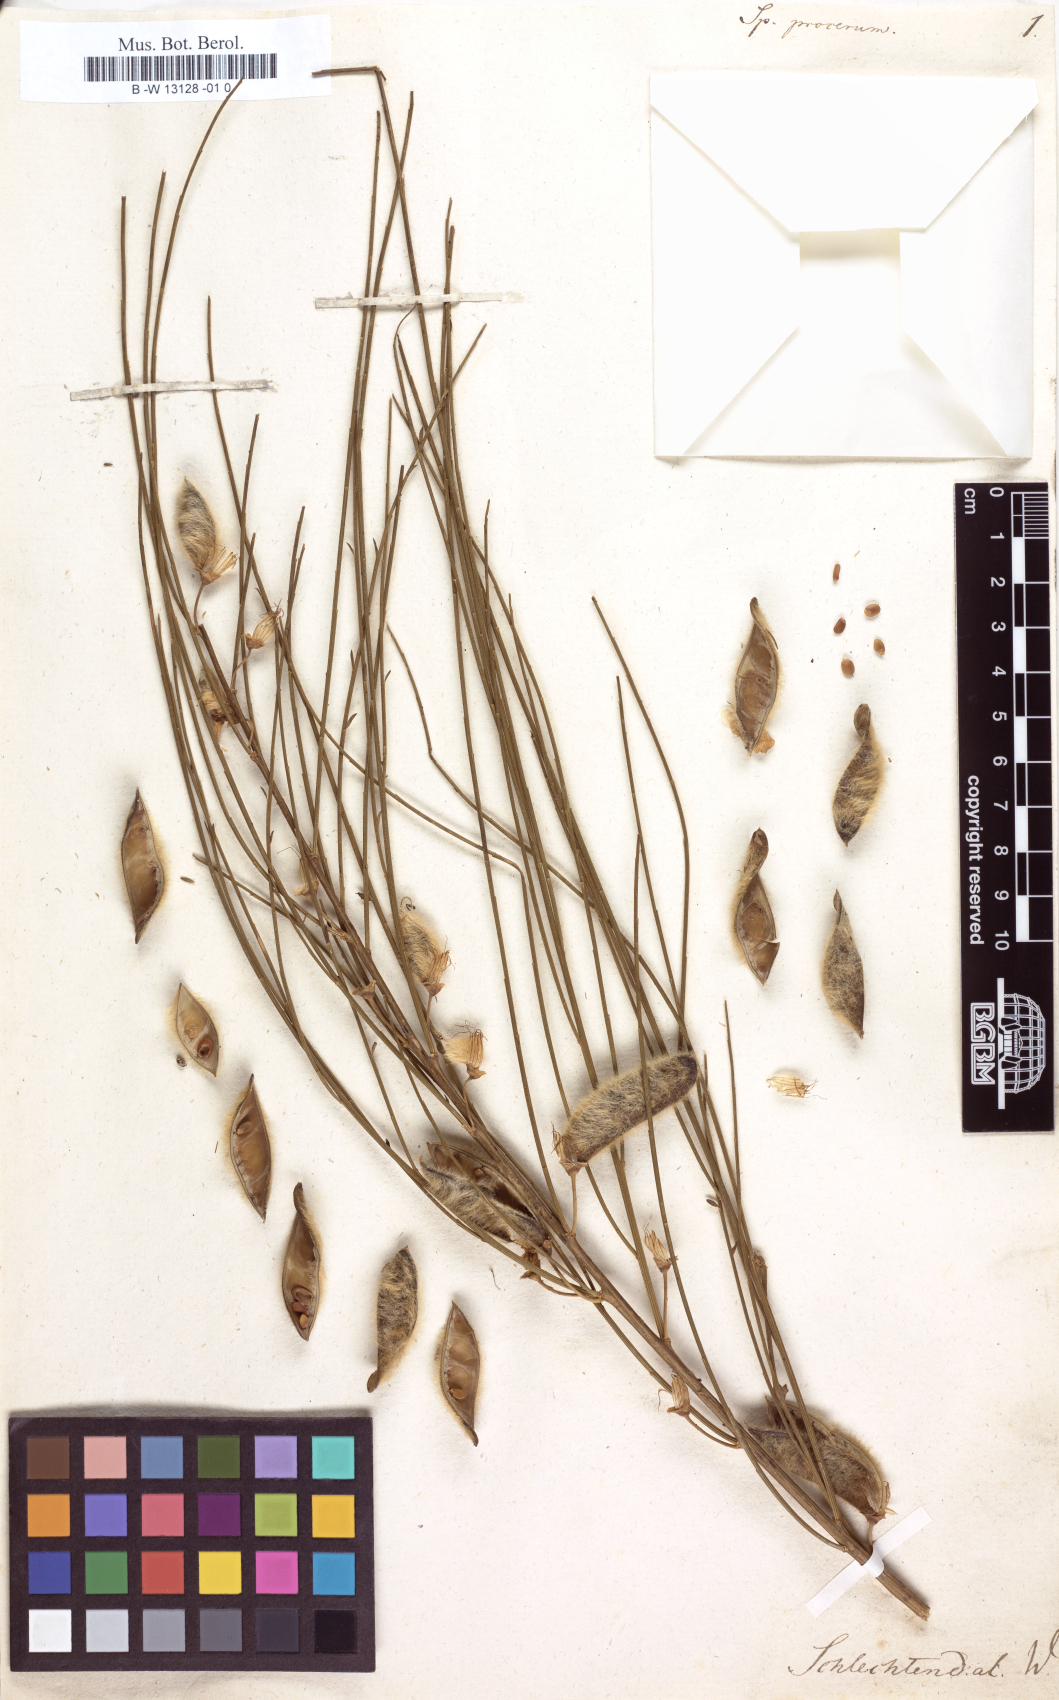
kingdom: Plantae
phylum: Tracheophyta
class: Magnoliopsida
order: Fabales
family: Fabaceae
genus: Cytisus
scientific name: Cytisus striatus
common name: Hairy-fruited broom
